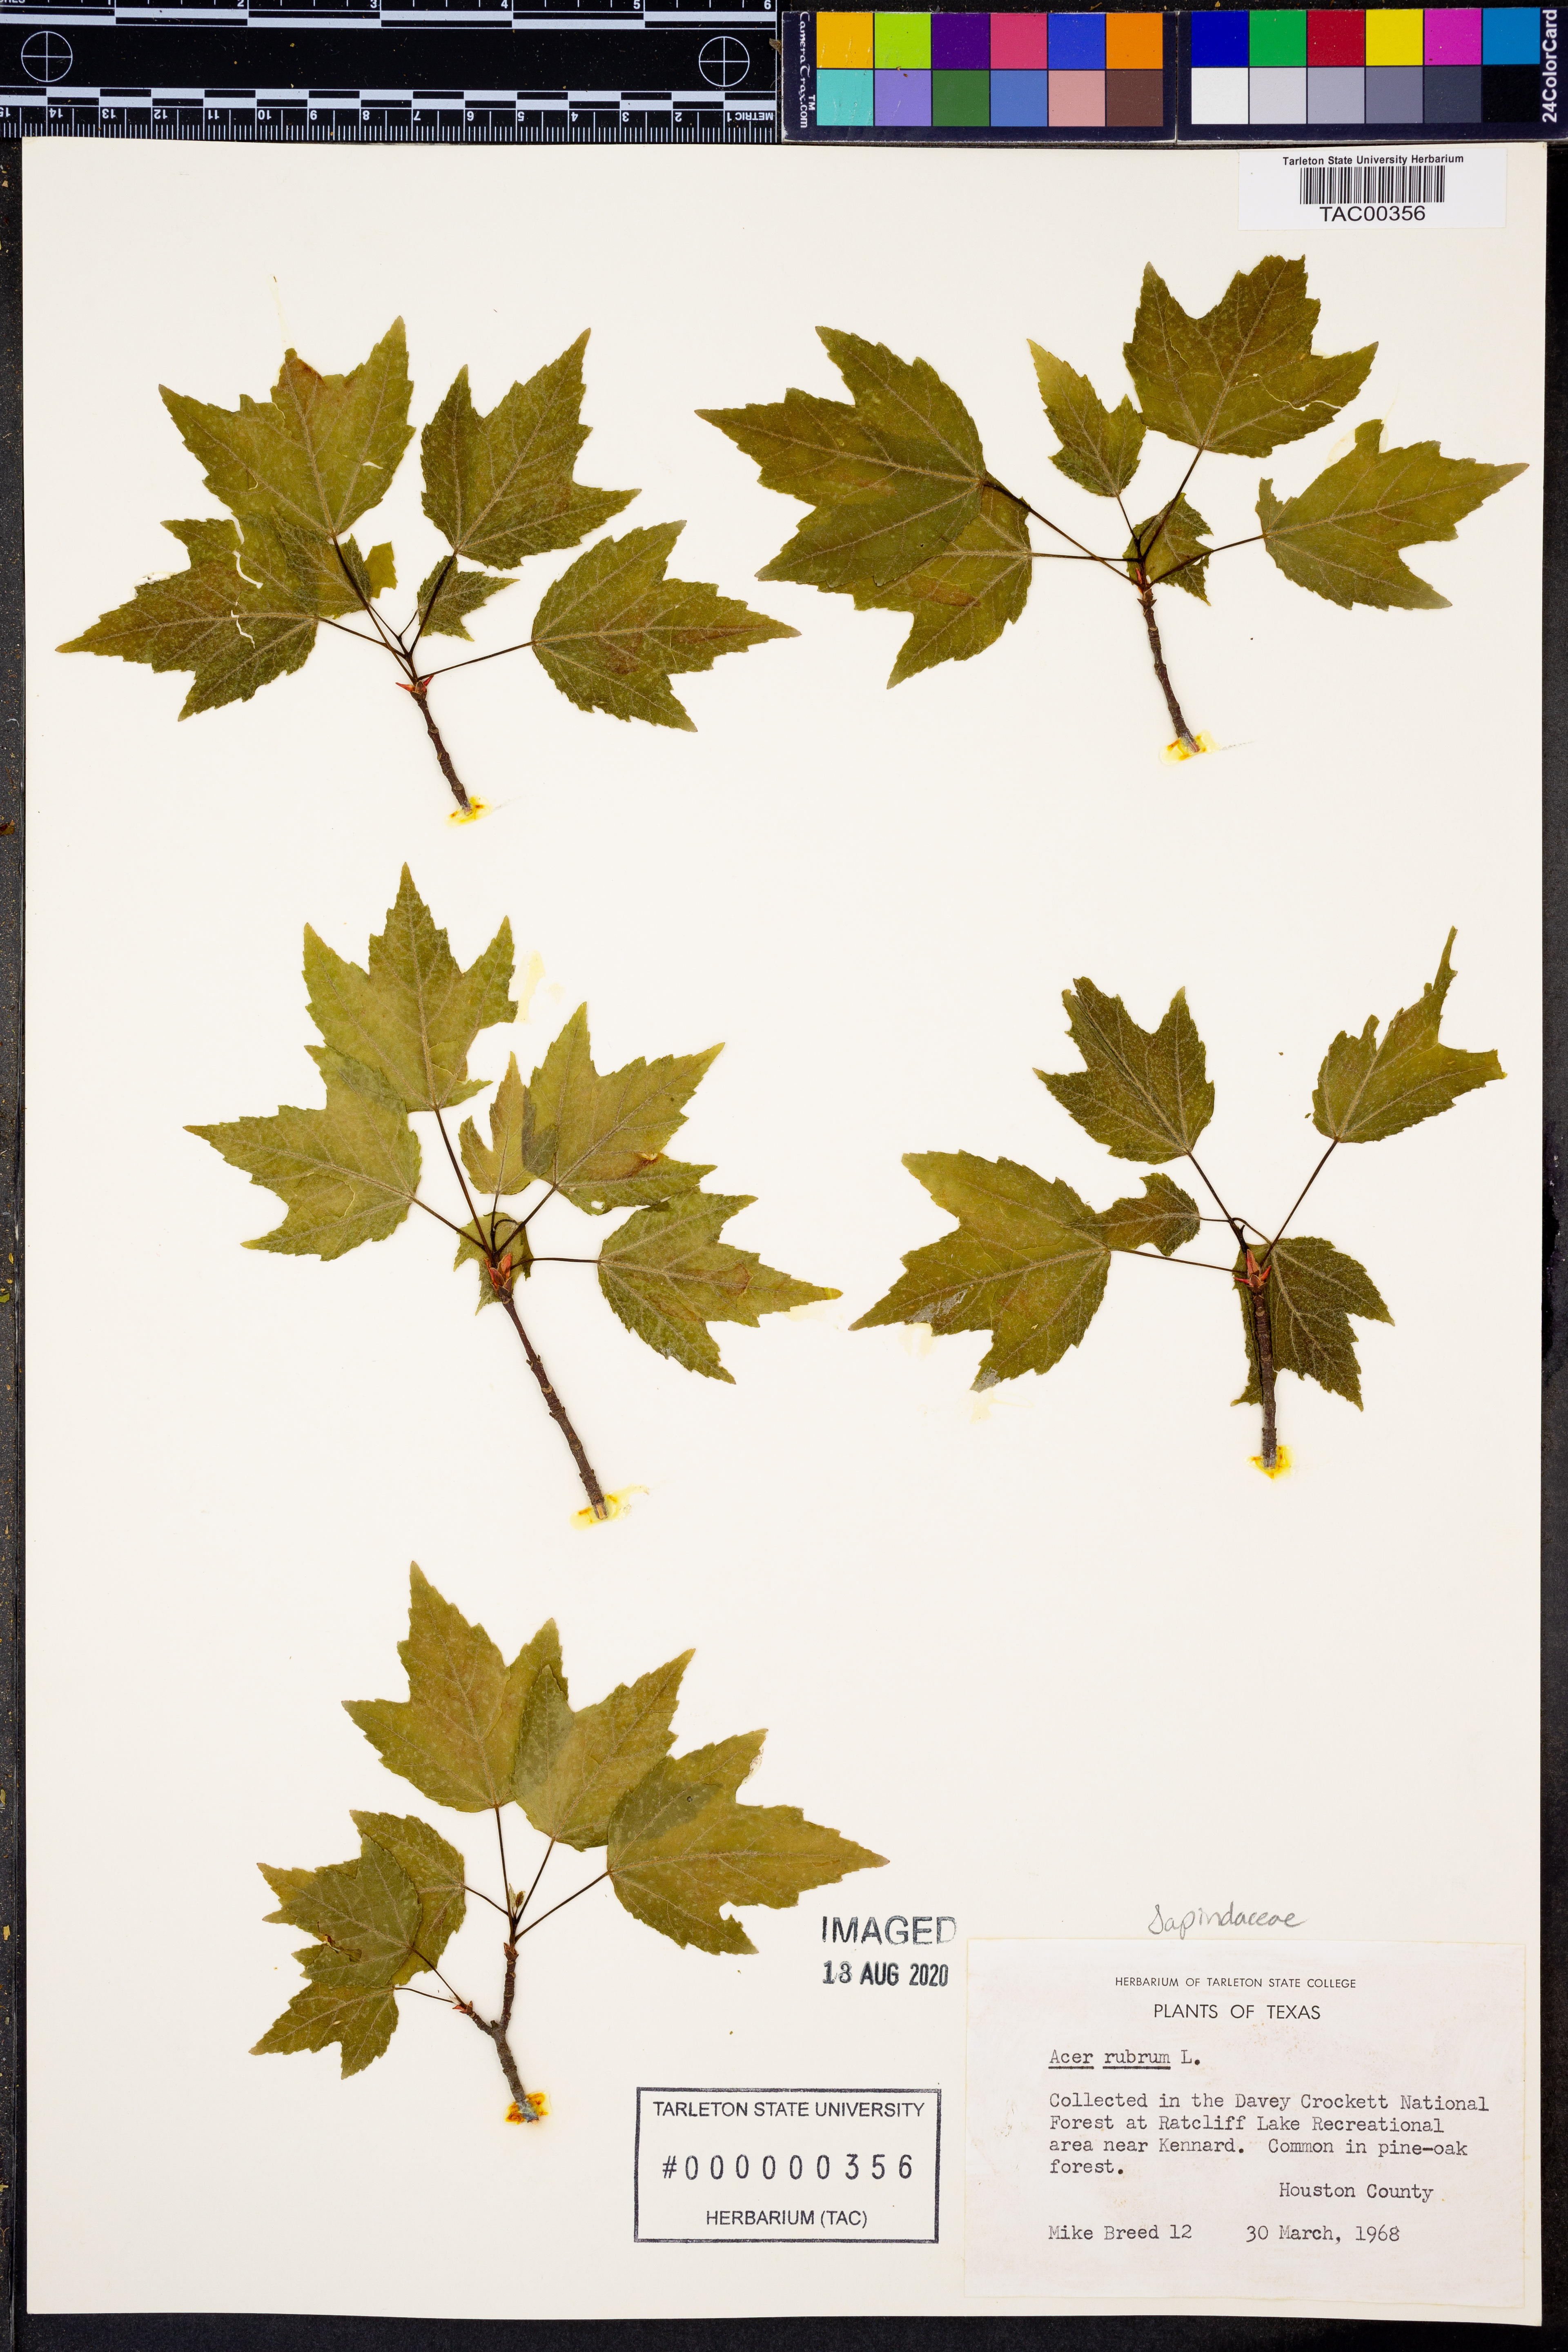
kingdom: Plantae
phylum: Tracheophyta
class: Magnoliopsida
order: Sapindales
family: Sapindaceae
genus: Acer
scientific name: Acer rubrum
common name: Red maple
